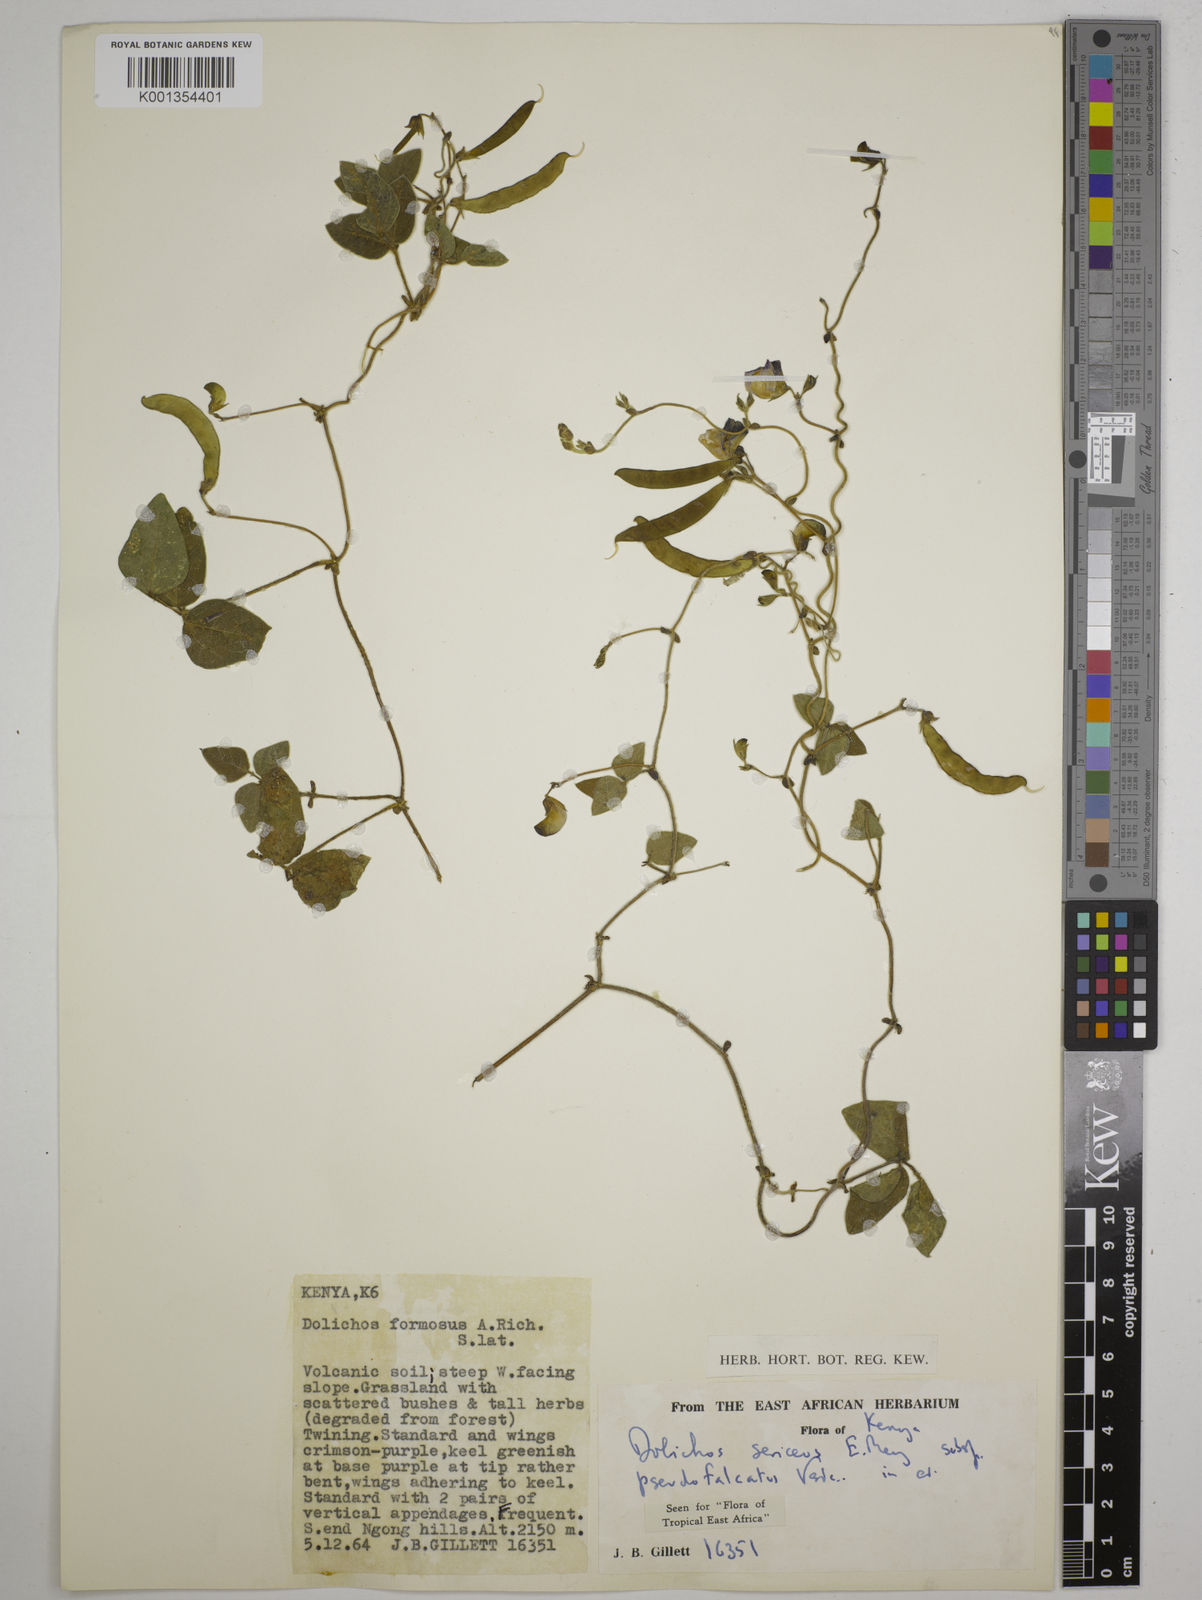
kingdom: Plantae
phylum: Tracheophyta
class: Magnoliopsida
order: Fabales
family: Fabaceae
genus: Dolichos
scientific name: Dolichos
